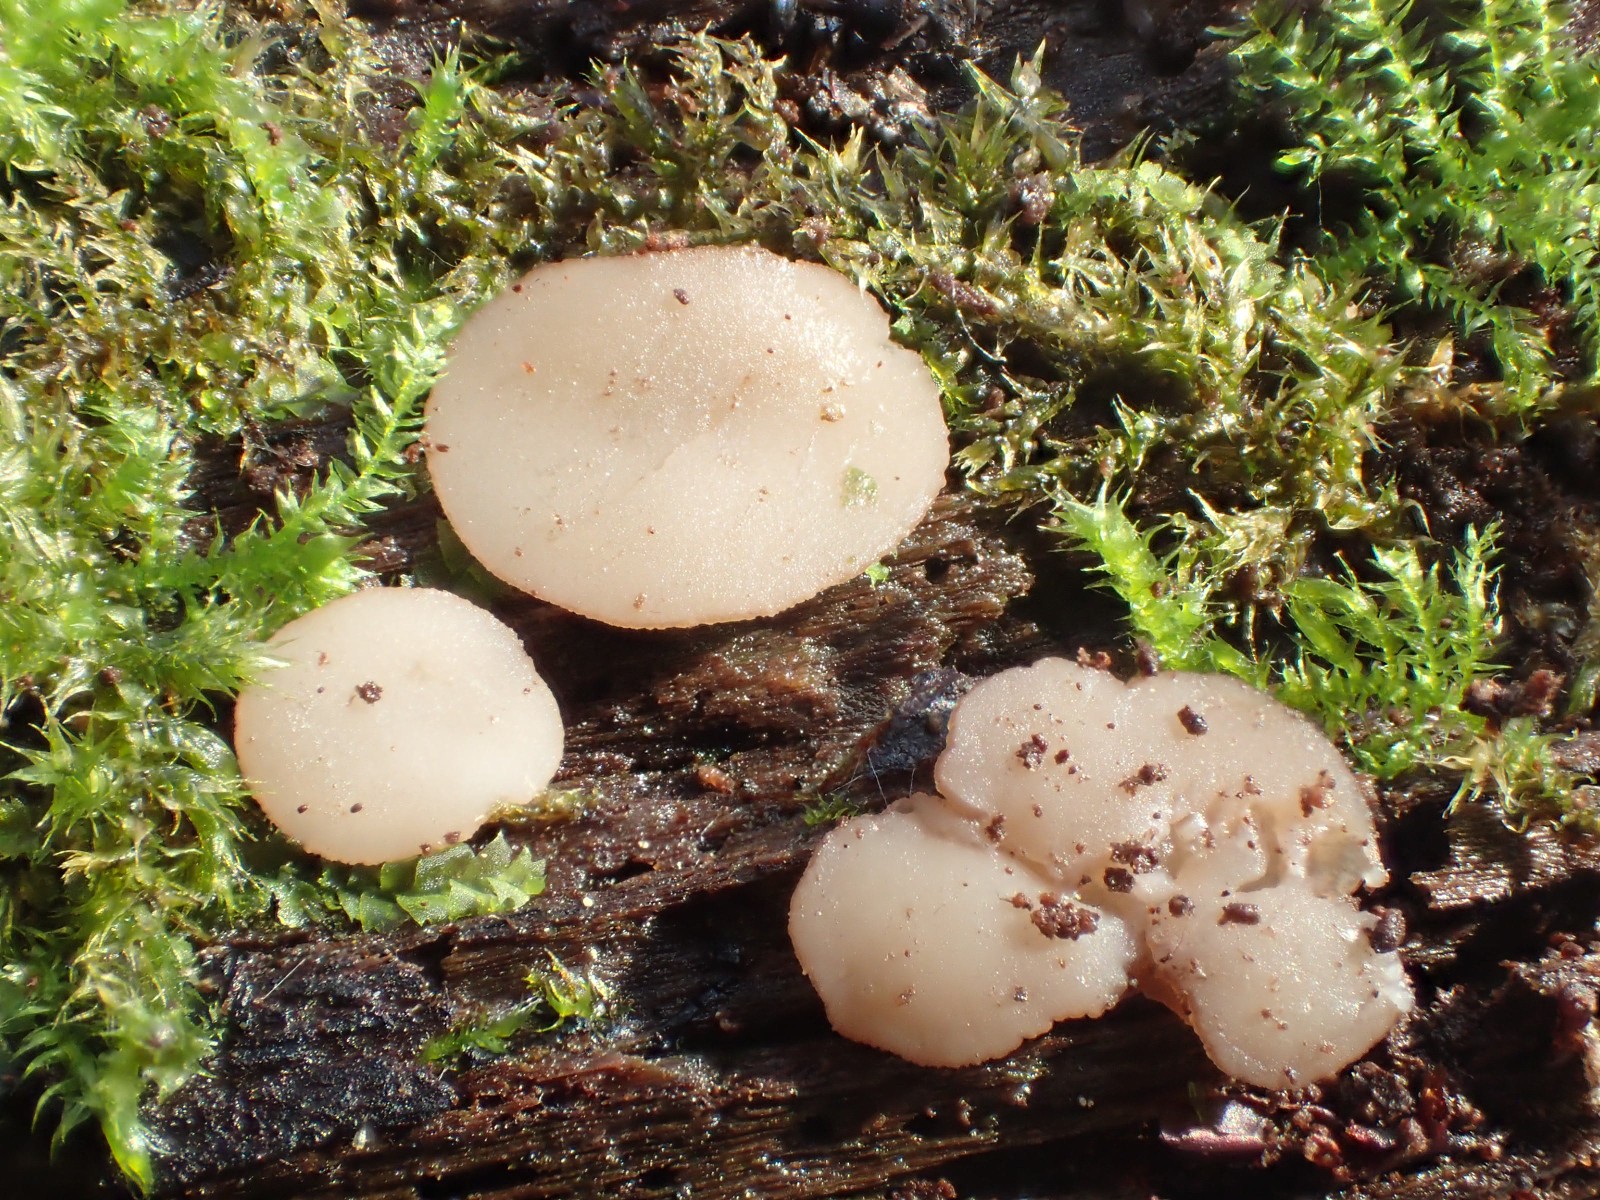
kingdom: Fungi
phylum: Ascomycota
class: Leotiomycetes
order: Helotiales
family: Helotiaceae
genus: Tatraea
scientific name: Tatraea dumbirensis
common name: Beechwood goblet
